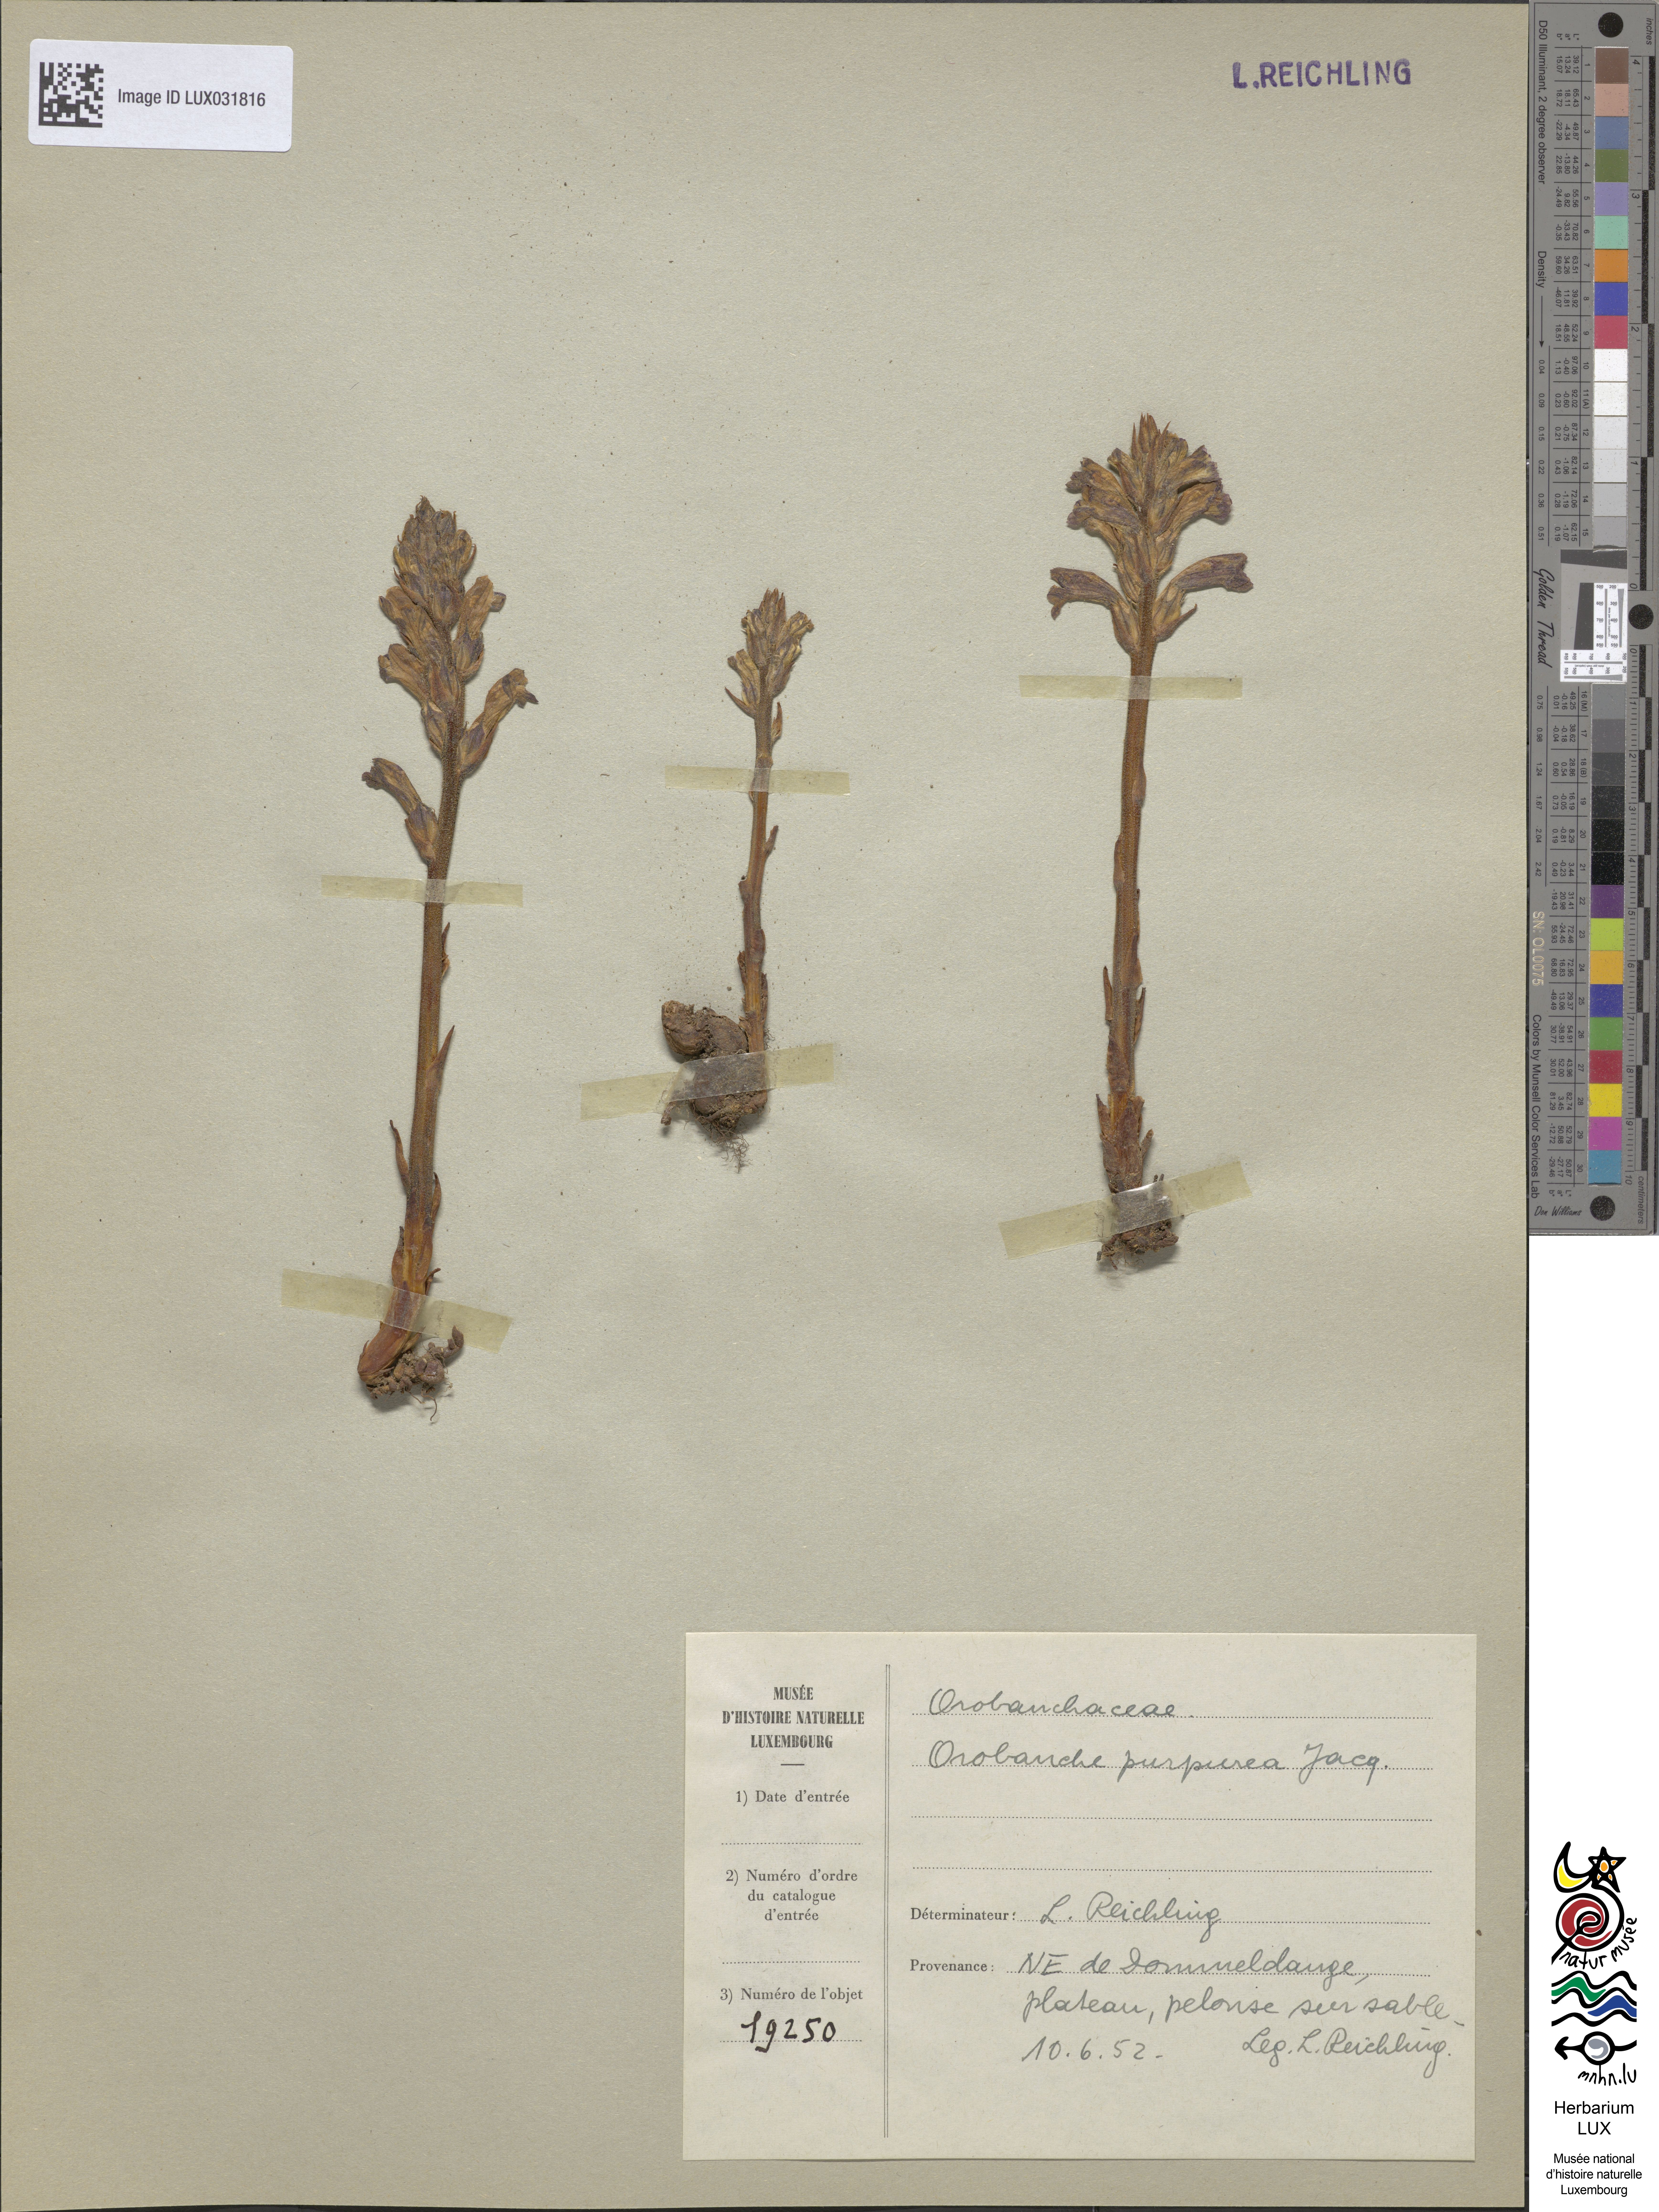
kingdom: Plantae
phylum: Tracheophyta
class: Magnoliopsida
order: Lamiales
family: Orobanchaceae
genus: Phelipanche
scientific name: Phelipanche purpurea
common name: Purple broomrape
